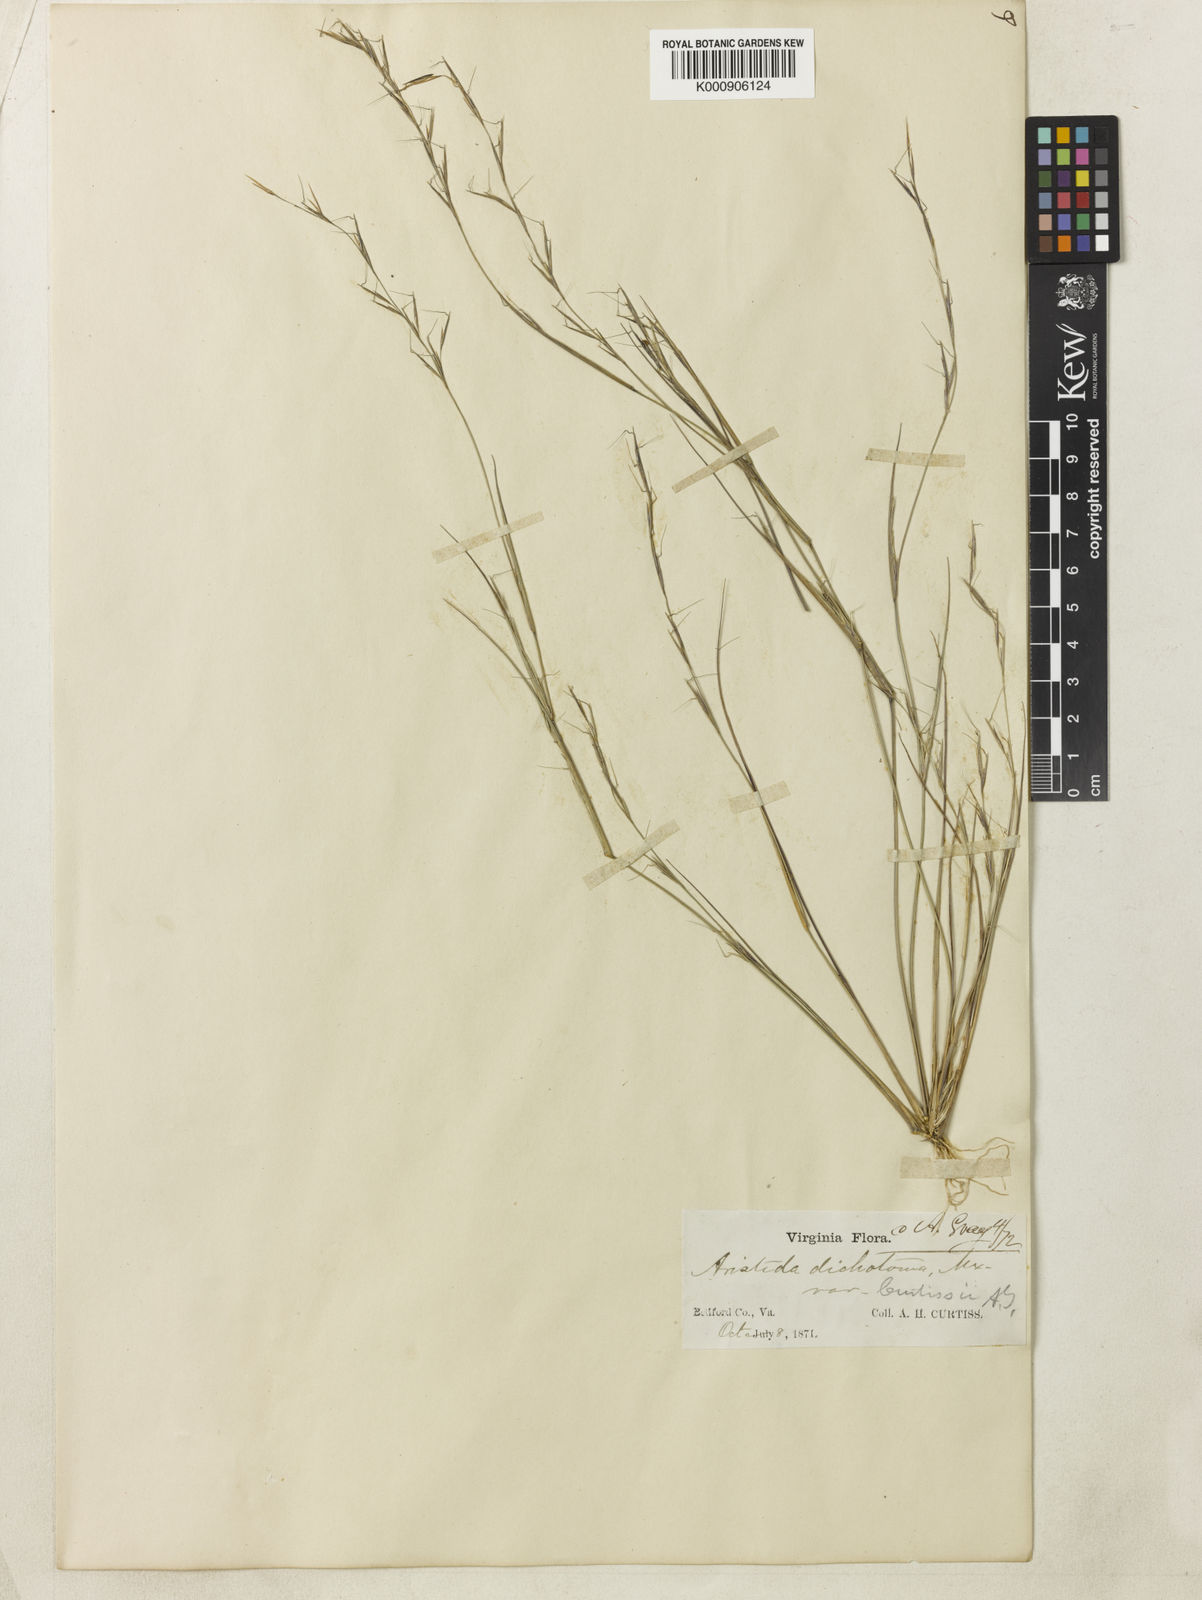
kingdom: Plantae
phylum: Tracheophyta
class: Liliopsida
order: Poales
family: Poaceae
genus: Aristida
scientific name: Aristida curtissii
